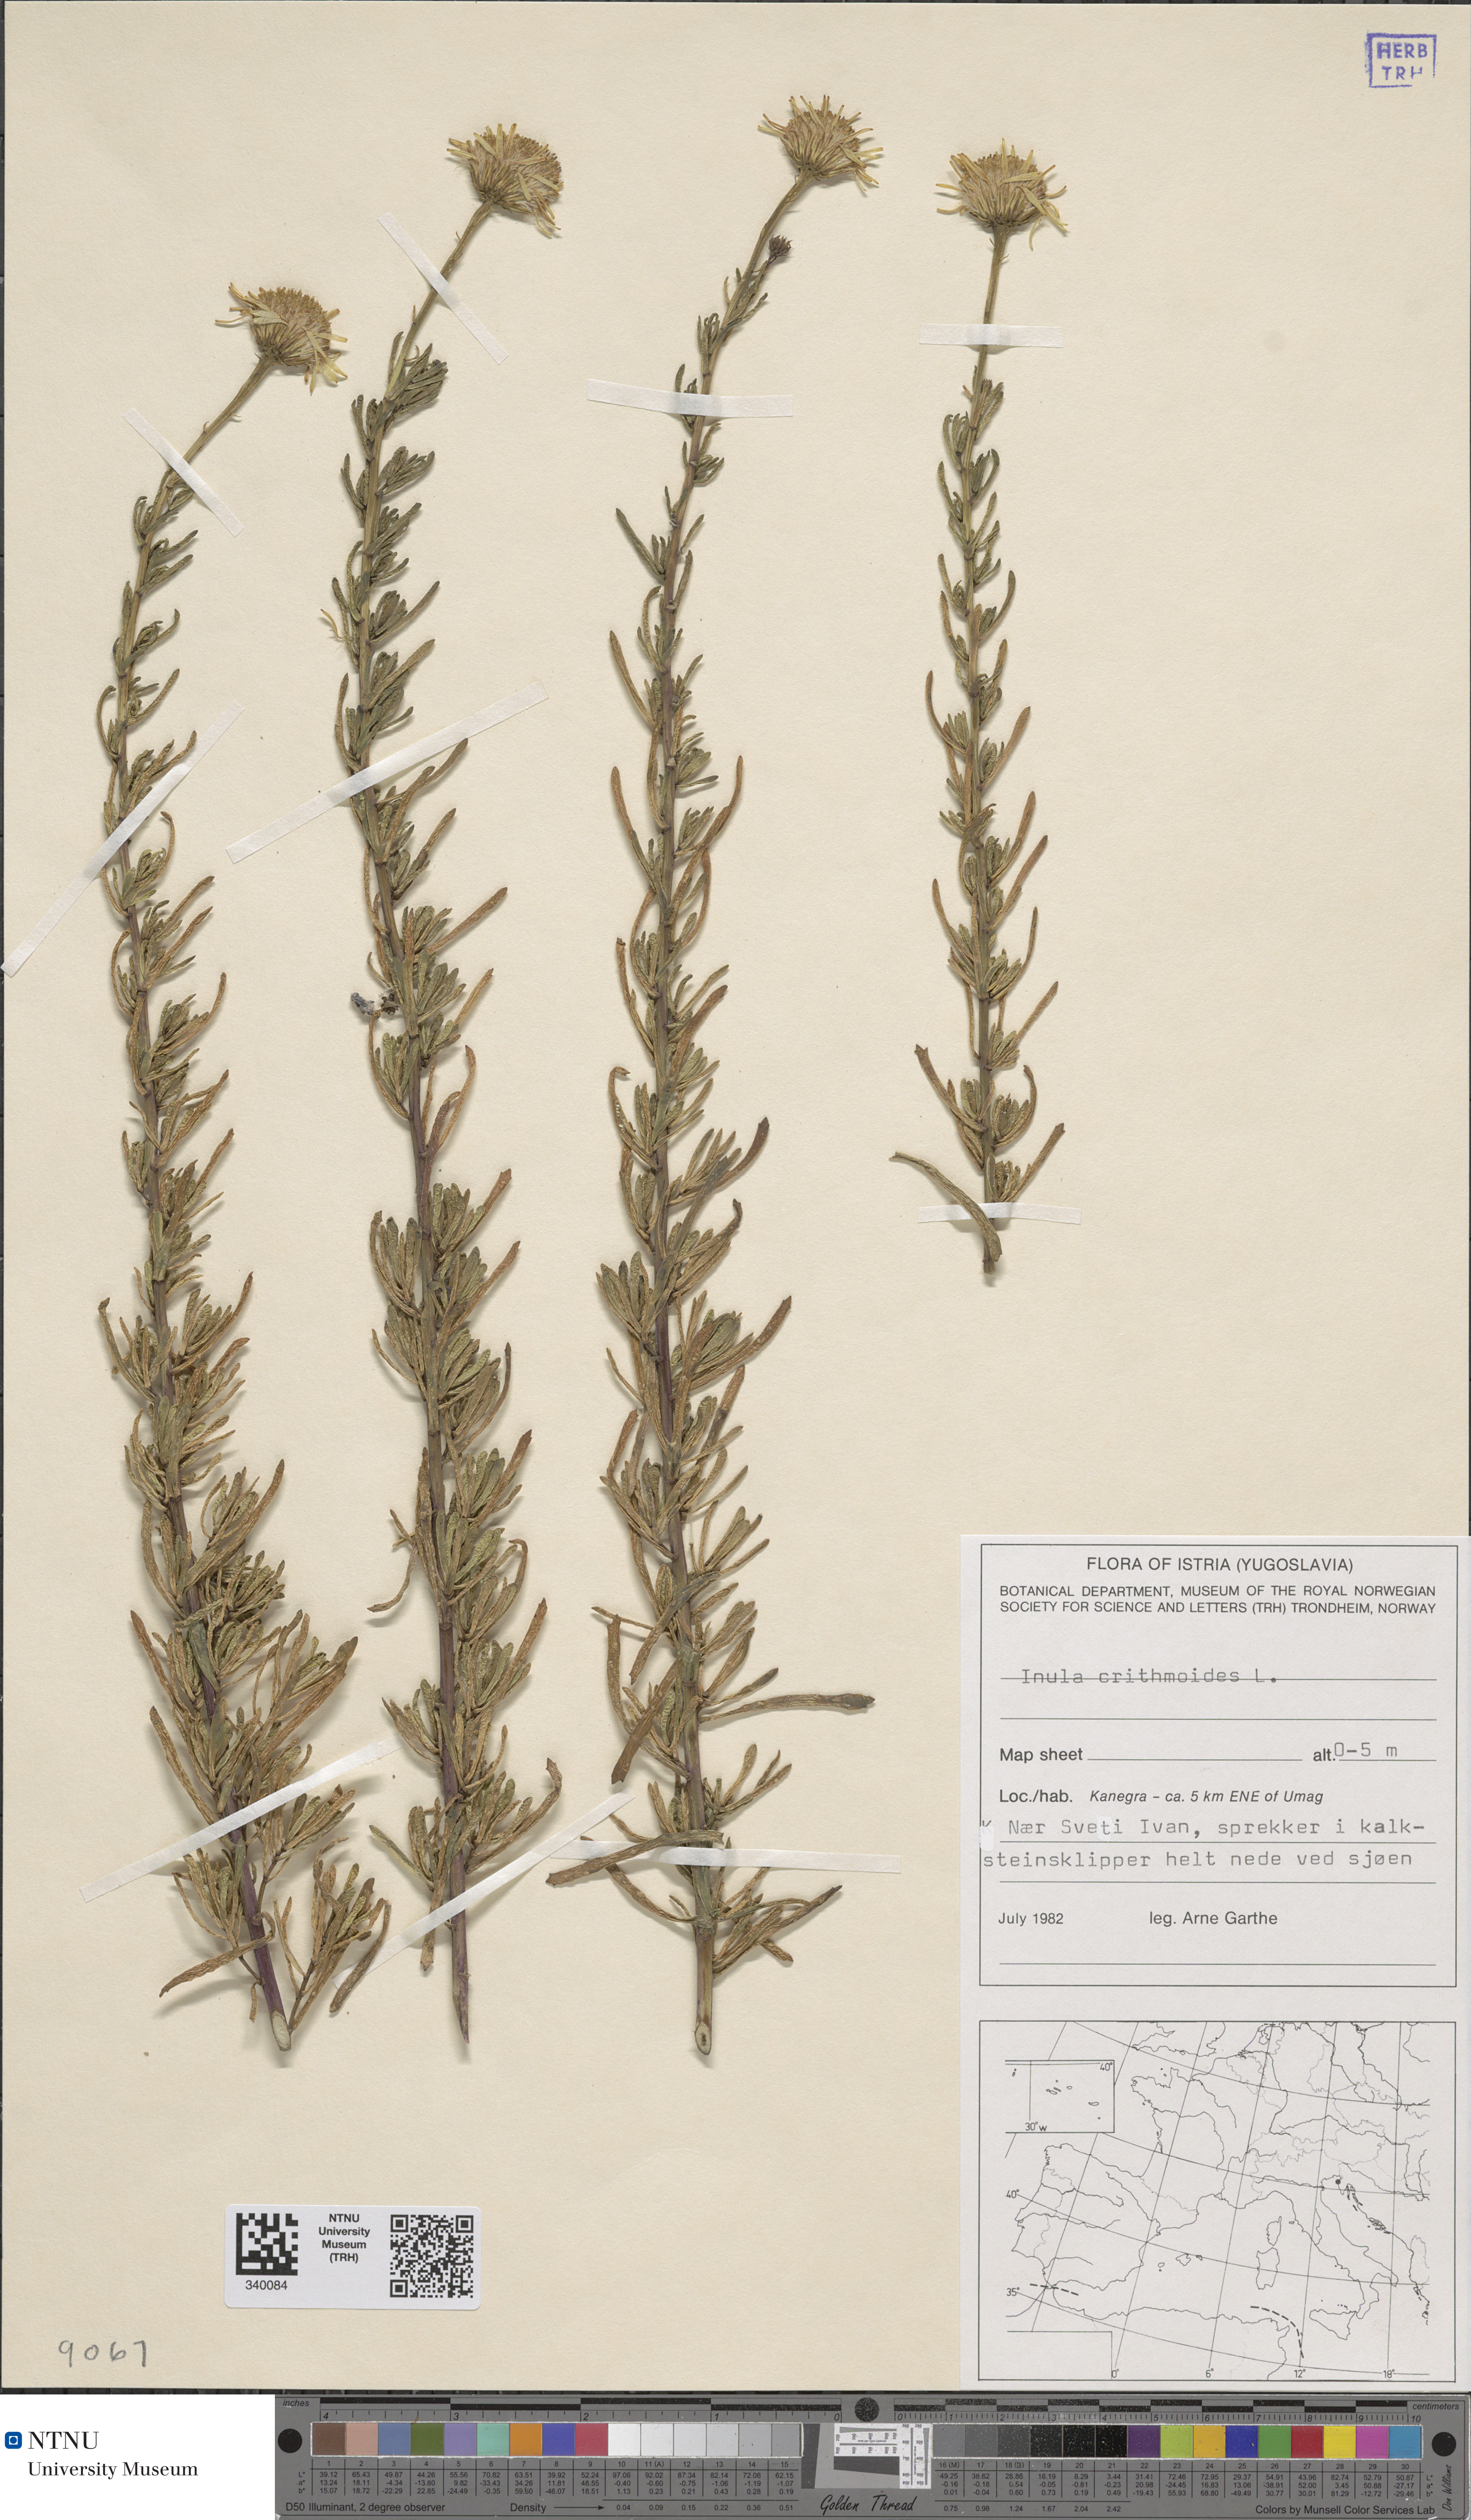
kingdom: Plantae
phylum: Tracheophyta
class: Magnoliopsida
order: Asterales
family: Asteraceae
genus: Limbarda
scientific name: Limbarda crithmoides
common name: Golden samphire
